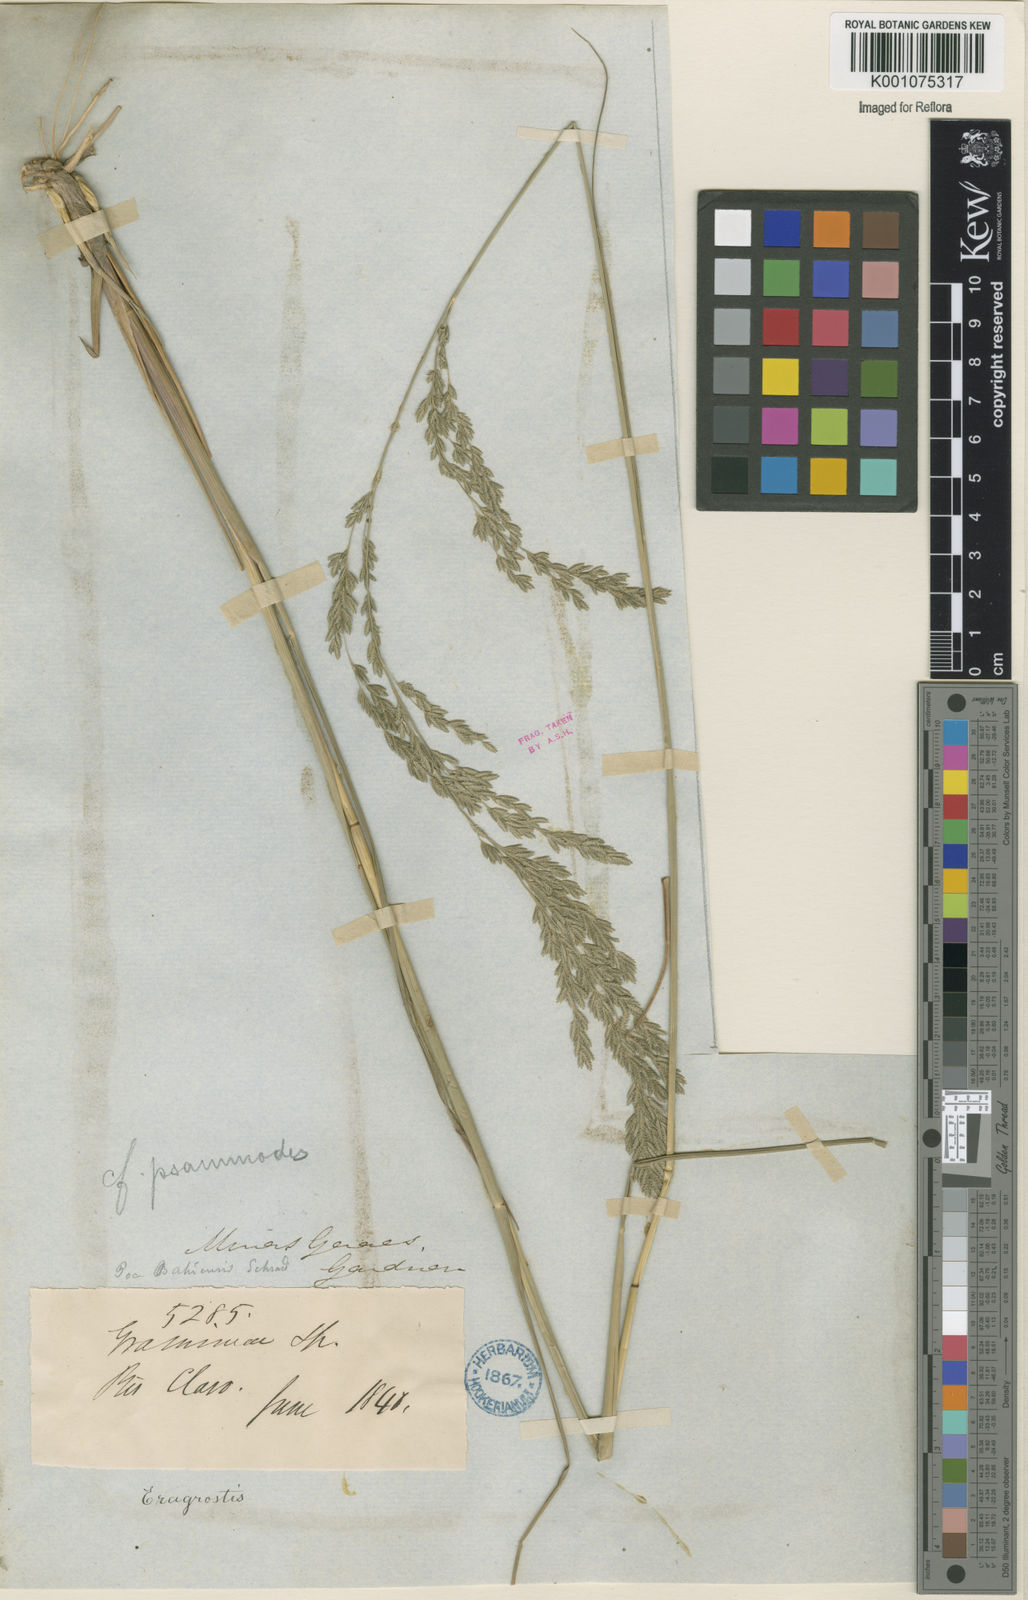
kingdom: Plantae
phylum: Tracheophyta
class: Liliopsida
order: Poales
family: Poaceae
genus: Eragrostis
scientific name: Eragrostis bahiensis
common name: Bahia lovegrass
